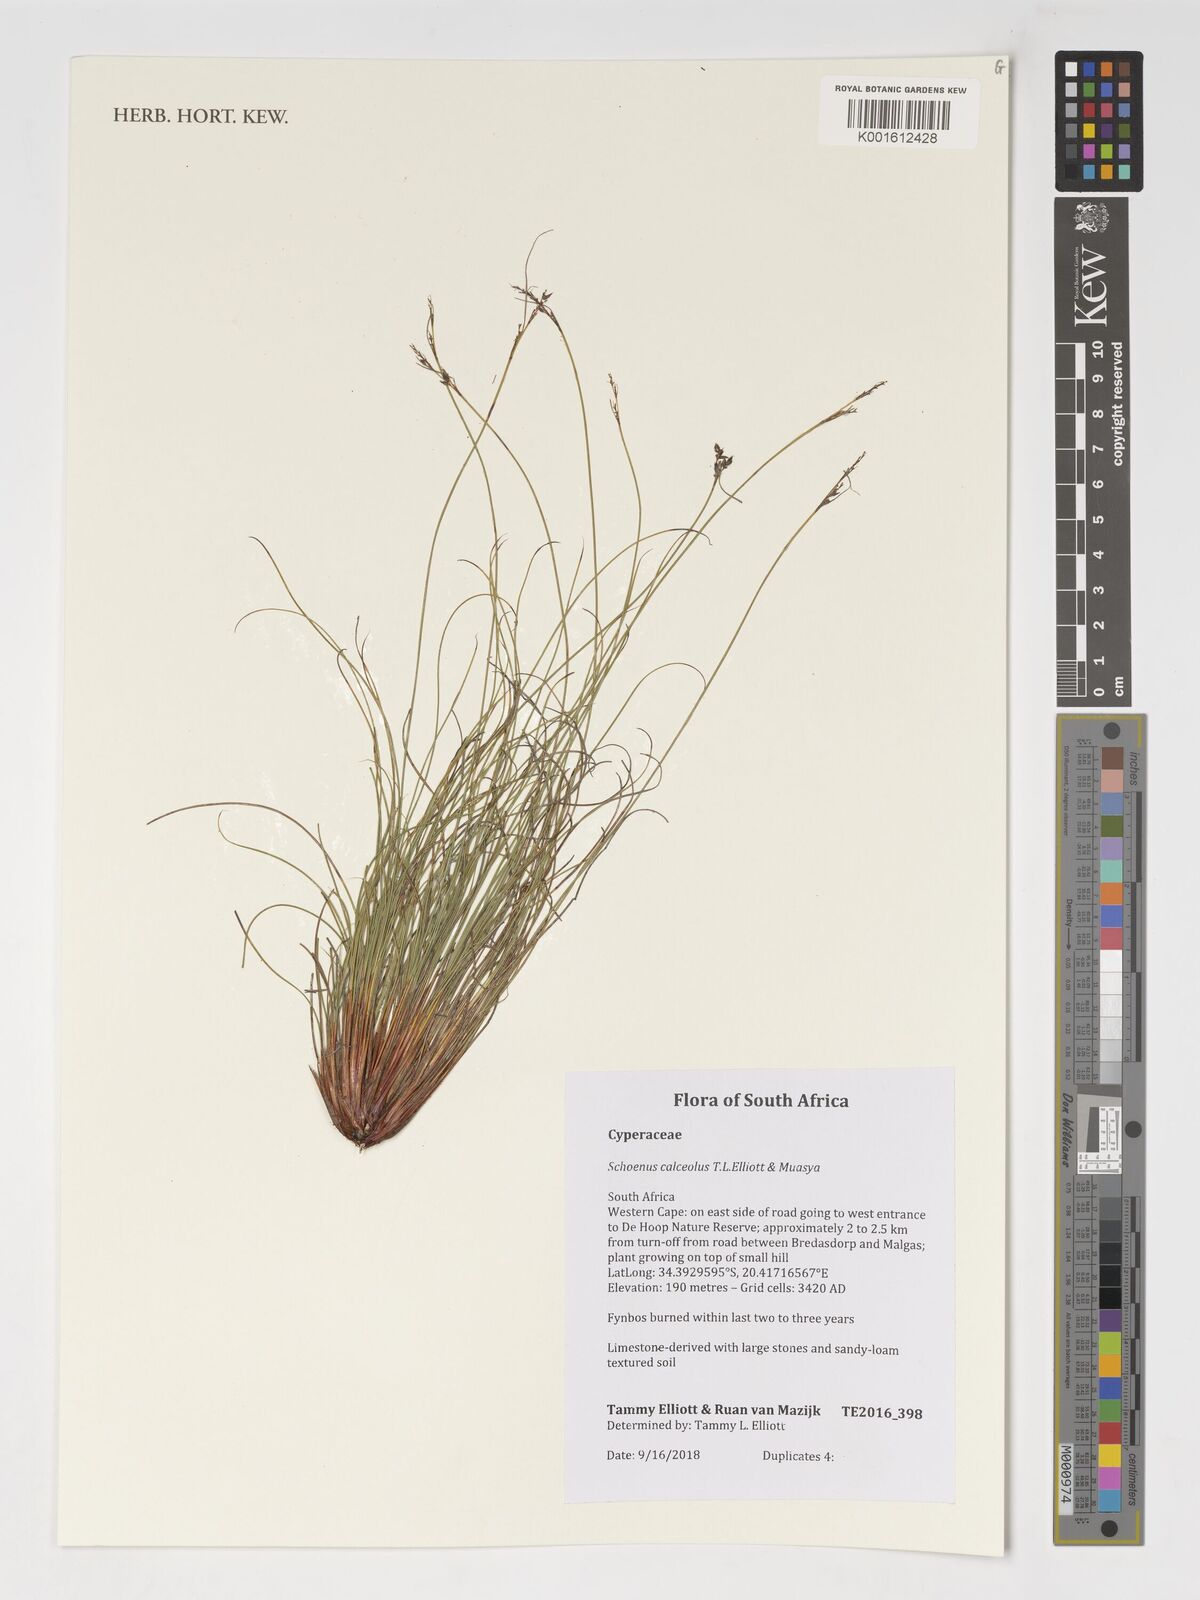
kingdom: Plantae
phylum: Tracheophyta
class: Liliopsida
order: Poales
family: Cyperaceae
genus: Schoenus
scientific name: Schoenus calceolus
